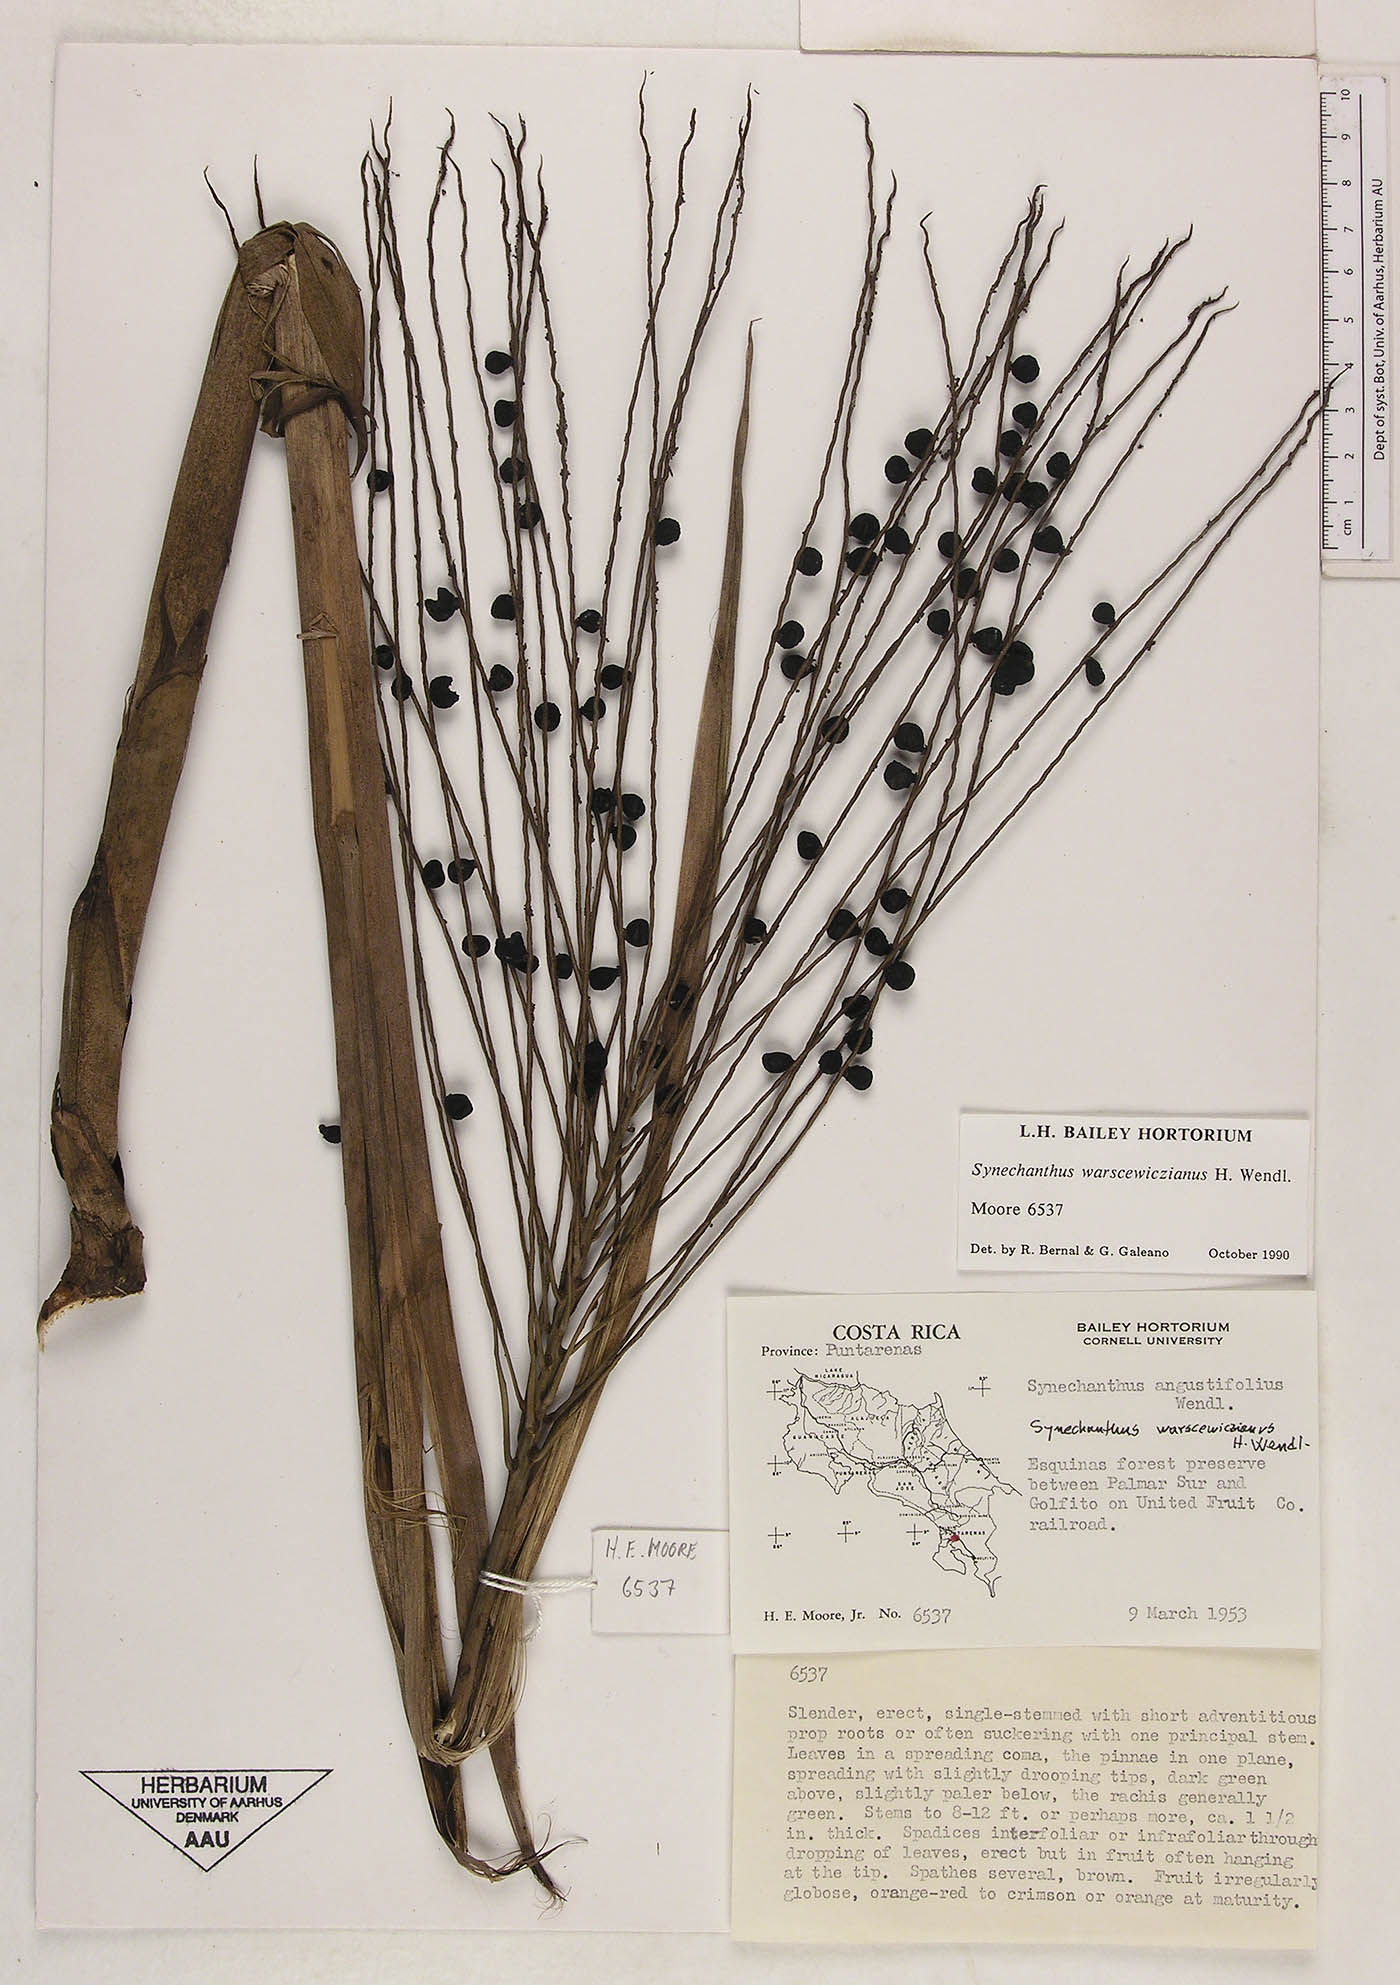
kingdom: Plantae
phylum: Tracheophyta
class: Liliopsida
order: Arecales
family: Arecaceae
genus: Synechanthus
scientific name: Synechanthus warscewiczianus
